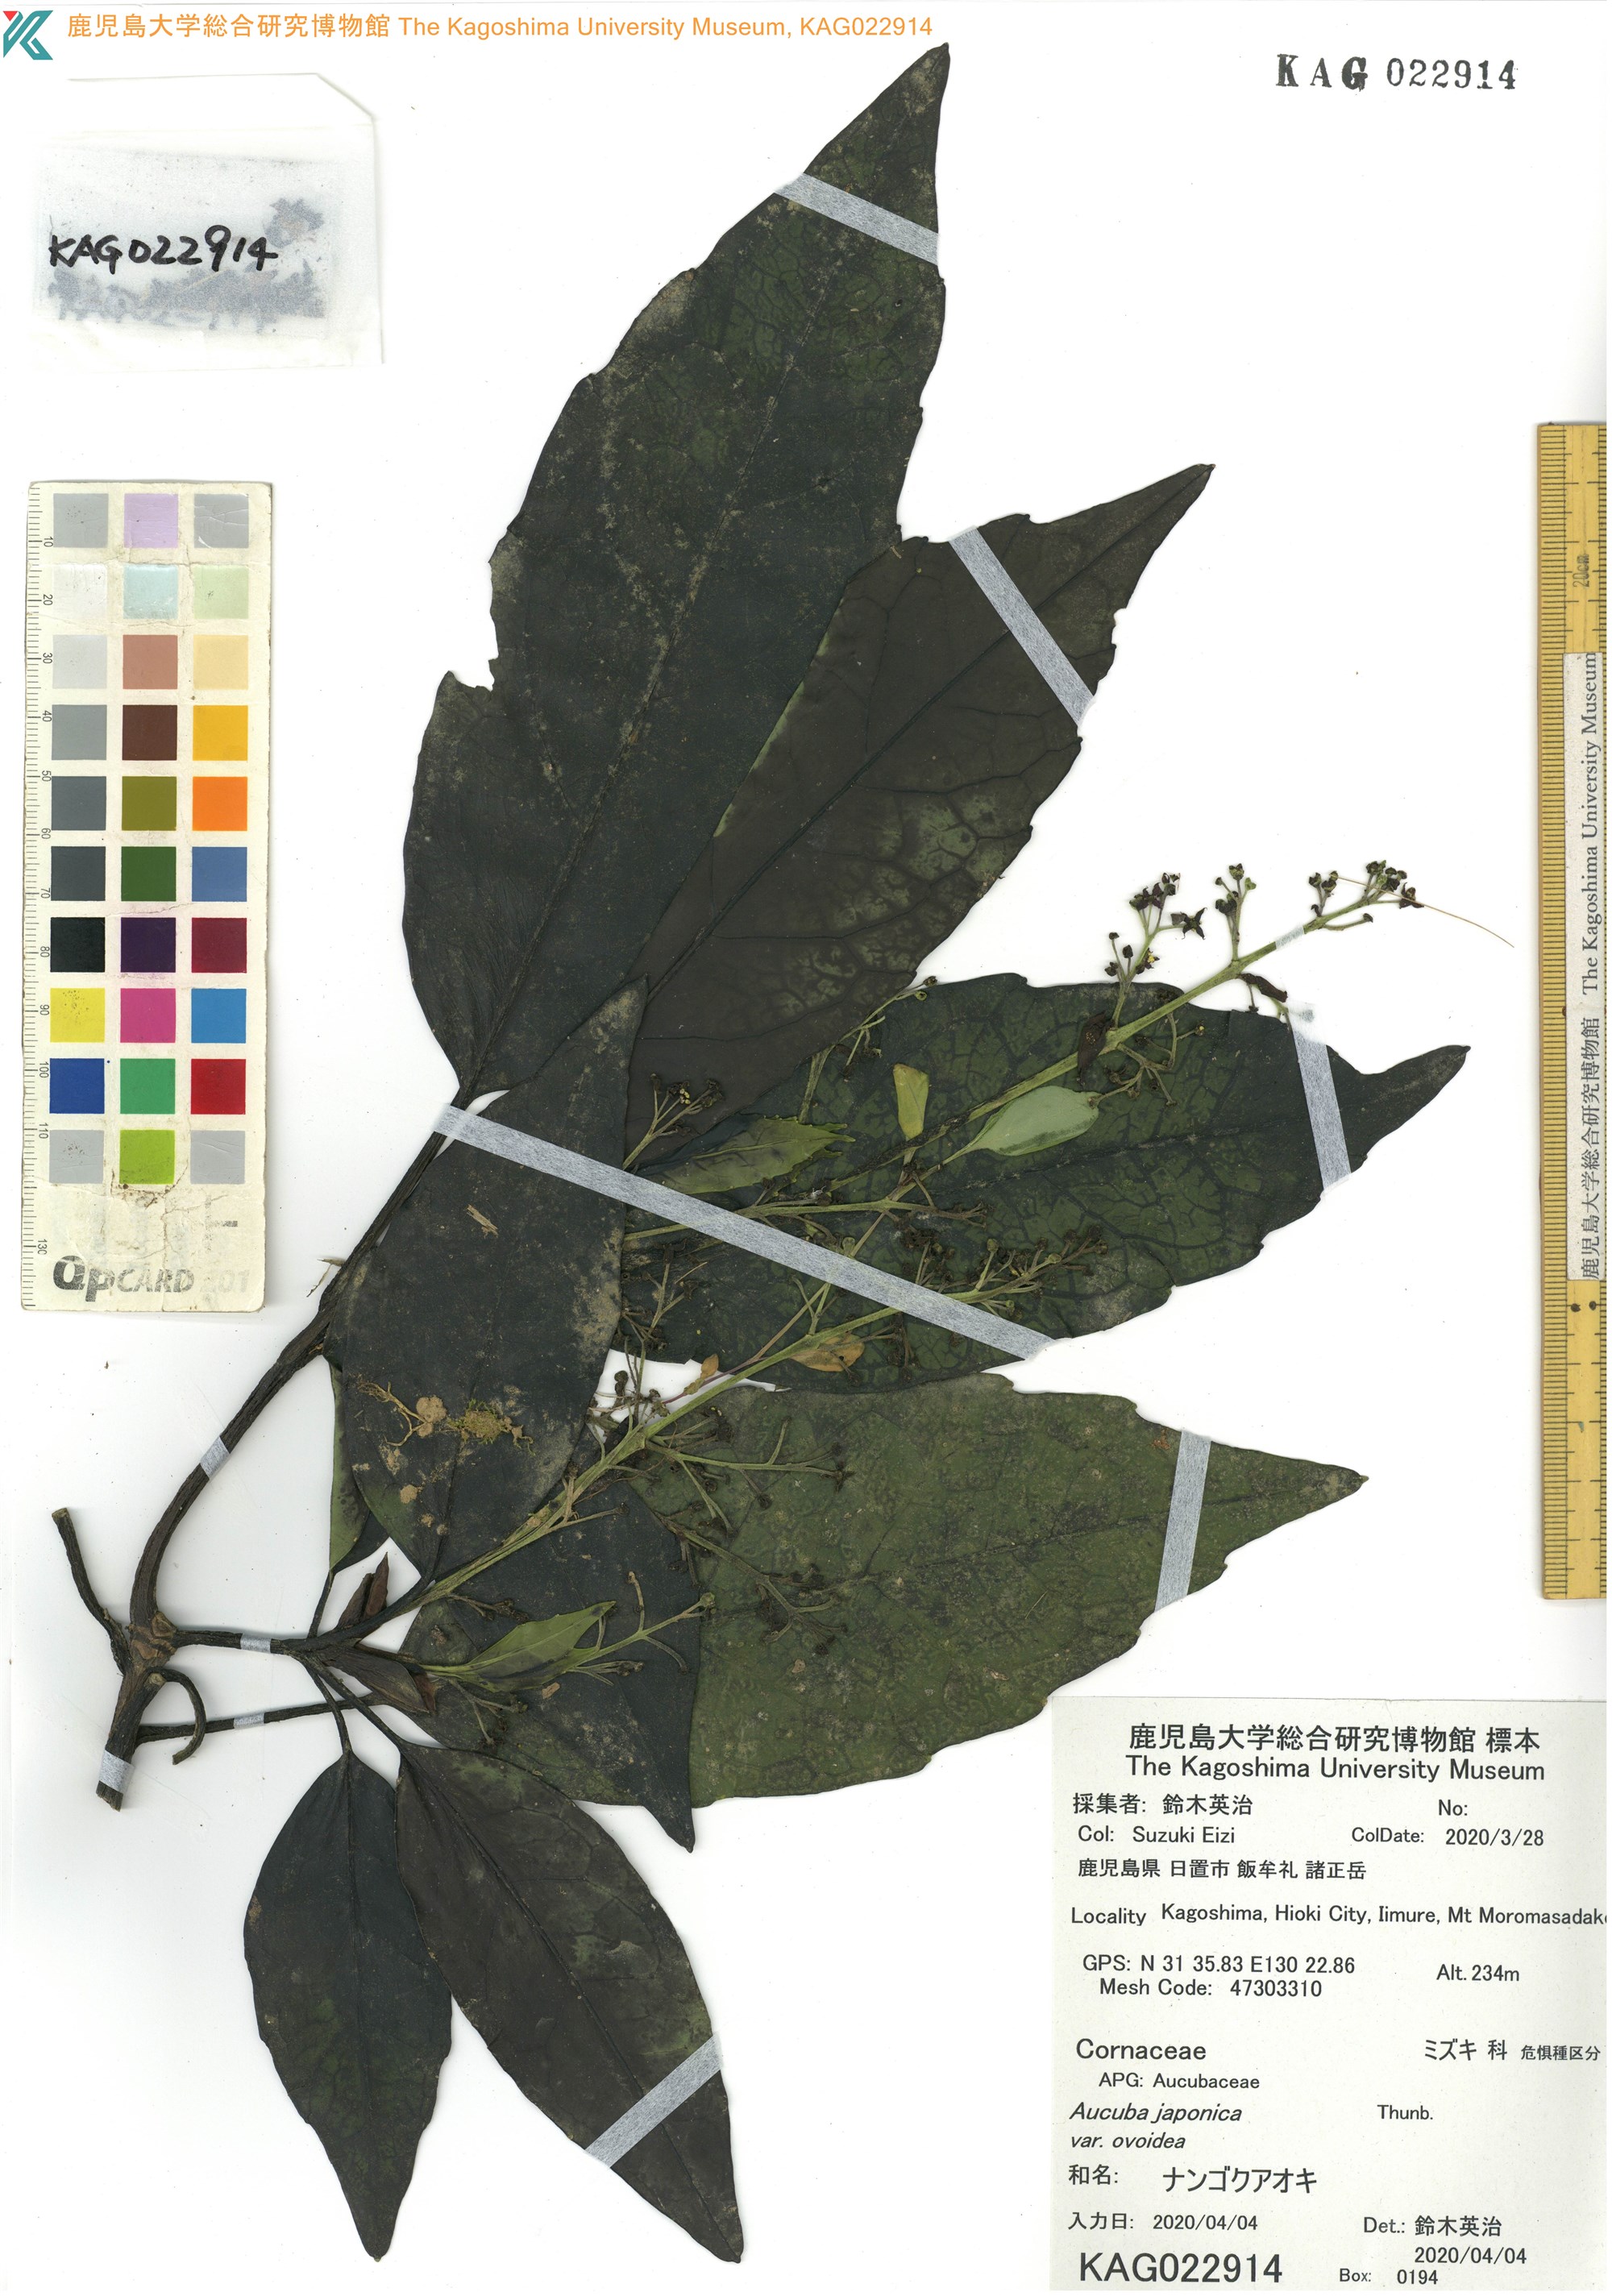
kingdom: Plantae
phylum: Tracheophyta
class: Magnoliopsida
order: Garryales
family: Garryaceae
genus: Aucuba
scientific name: Aucuba japonica
